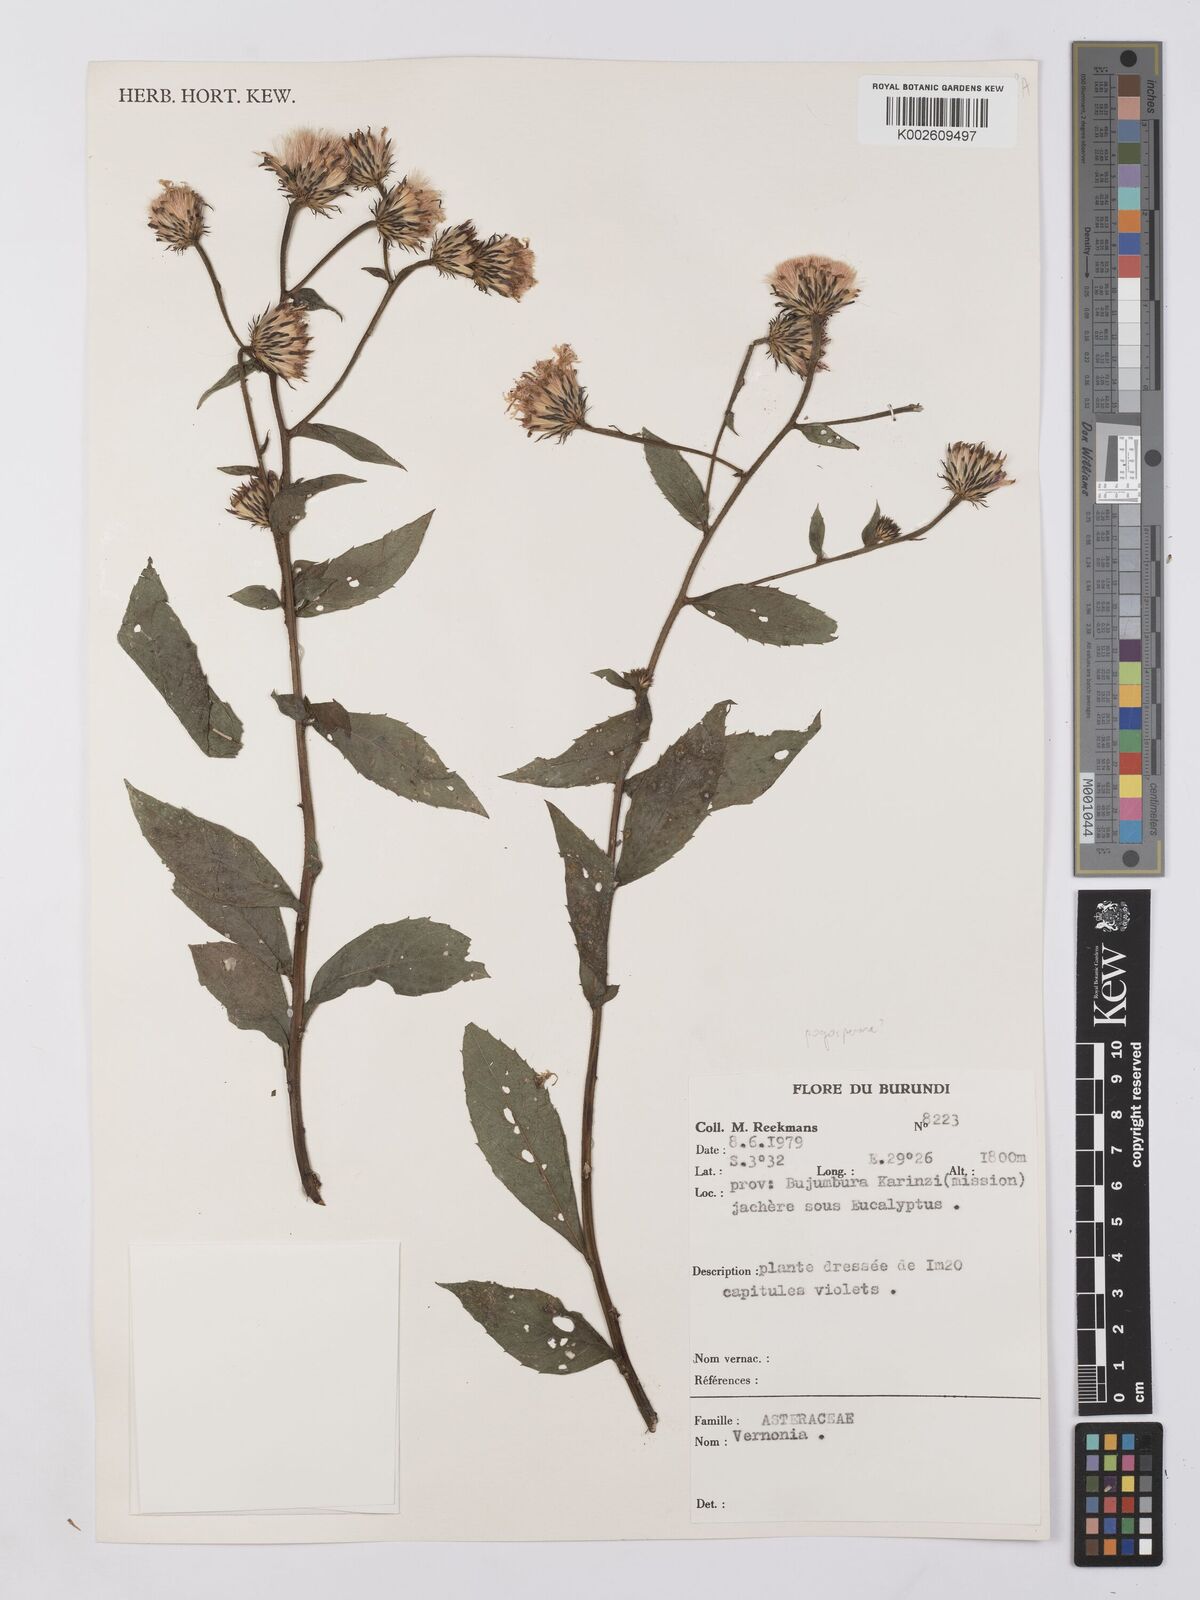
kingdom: Plantae
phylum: Tracheophyta
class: Magnoliopsida
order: Asterales
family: Asteraceae
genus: Vernonia
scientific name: Vernonia
